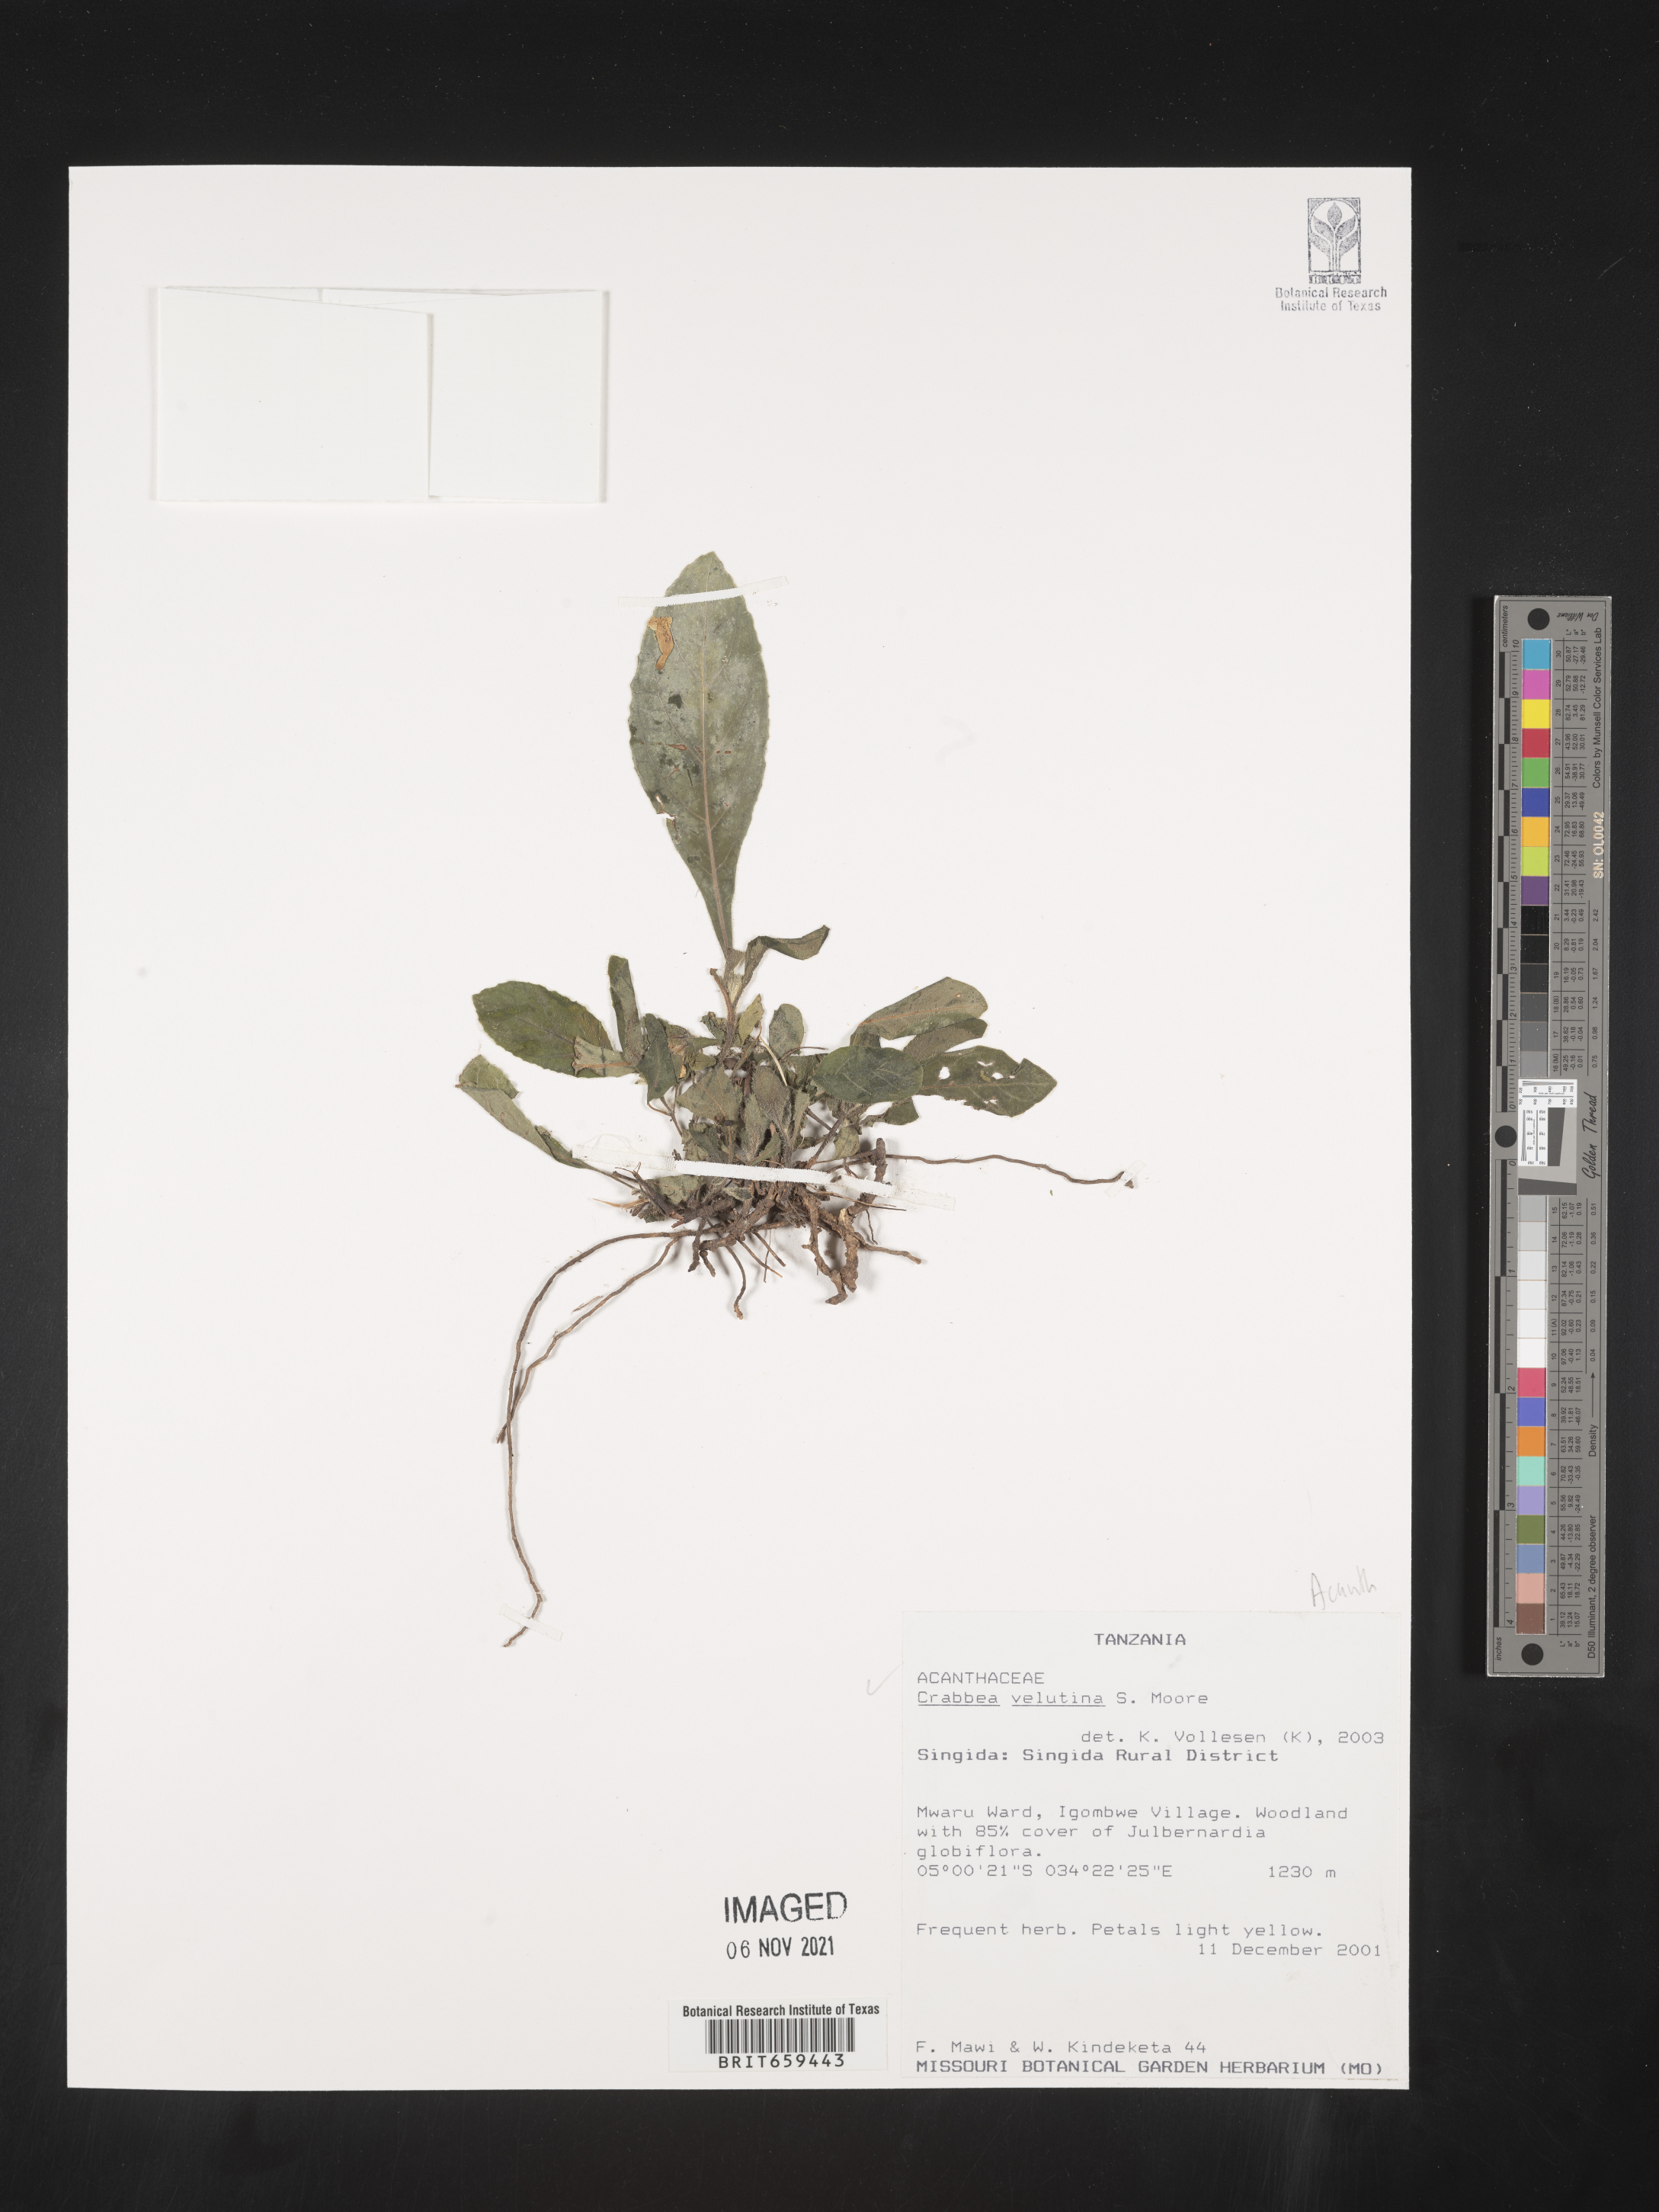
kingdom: Plantae
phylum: Tracheophyta
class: Magnoliopsida
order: Lamiales
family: Acanthaceae
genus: Crabbea
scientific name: Crabbea velutina
